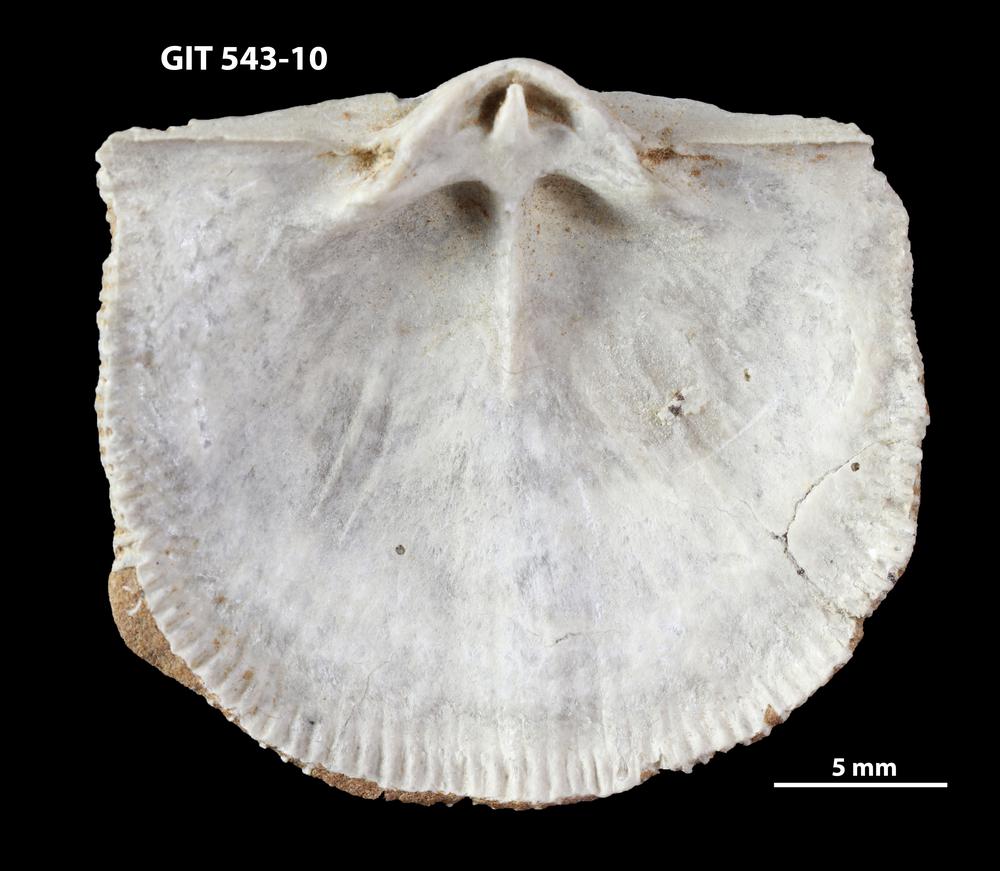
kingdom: Animalia
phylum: Brachiopoda
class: Rhynchonellata
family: Clitambonitidae
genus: Clitambonites
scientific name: Clitambonites
